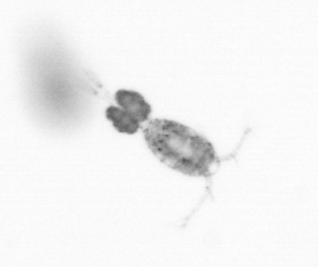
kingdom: Animalia
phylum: Arthropoda
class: Copepoda
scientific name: Copepoda
